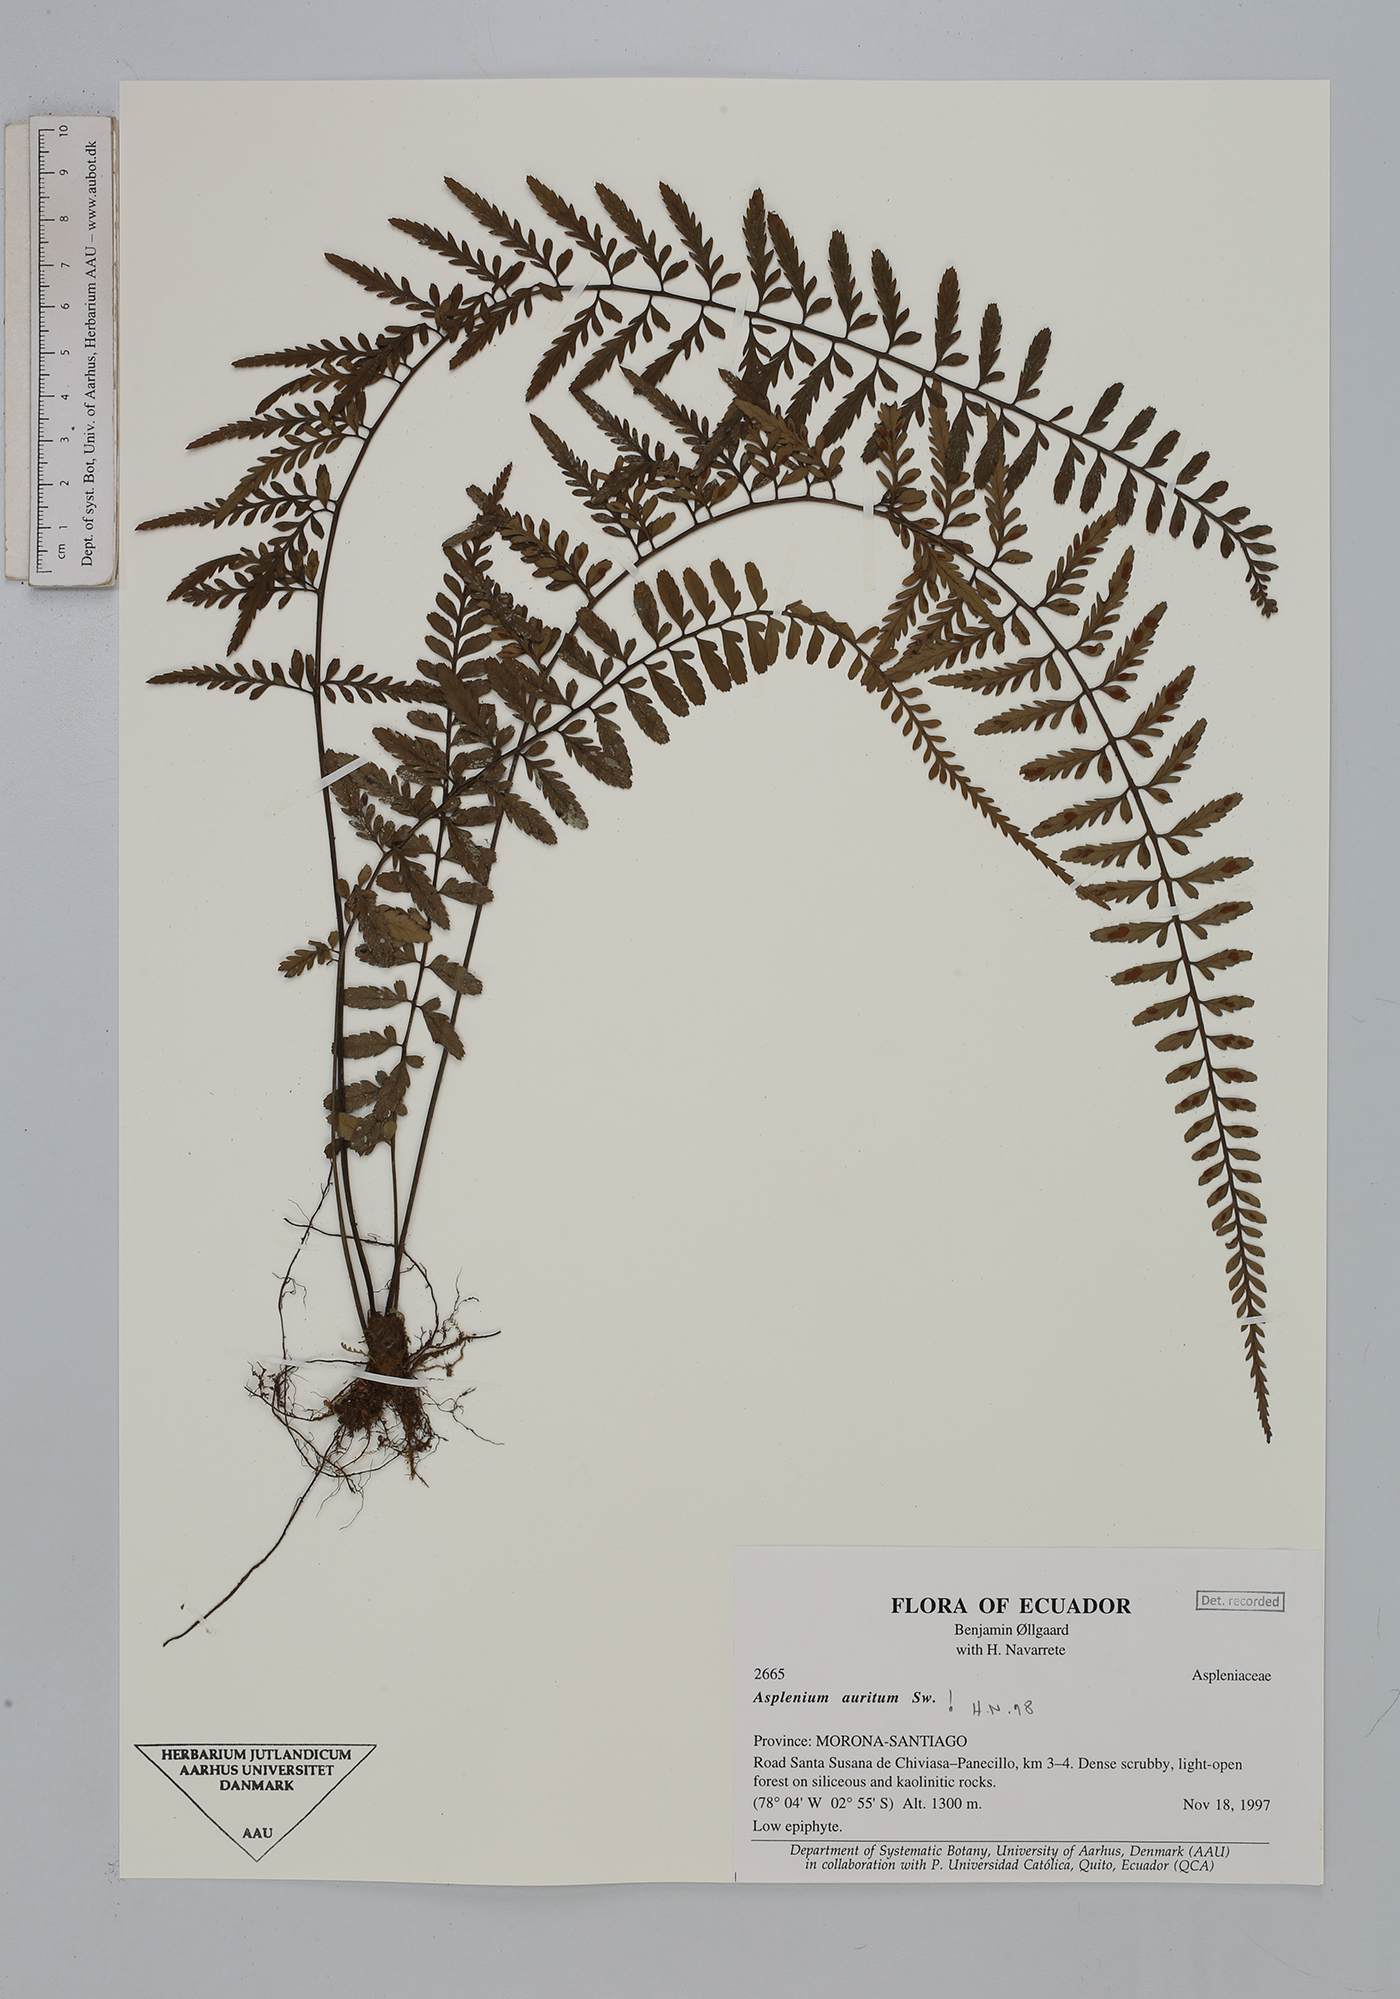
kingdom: Plantae
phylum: Tracheophyta
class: Polypodiopsida
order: Polypodiales
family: Aspleniaceae
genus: Asplenium
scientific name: Asplenium auritum
